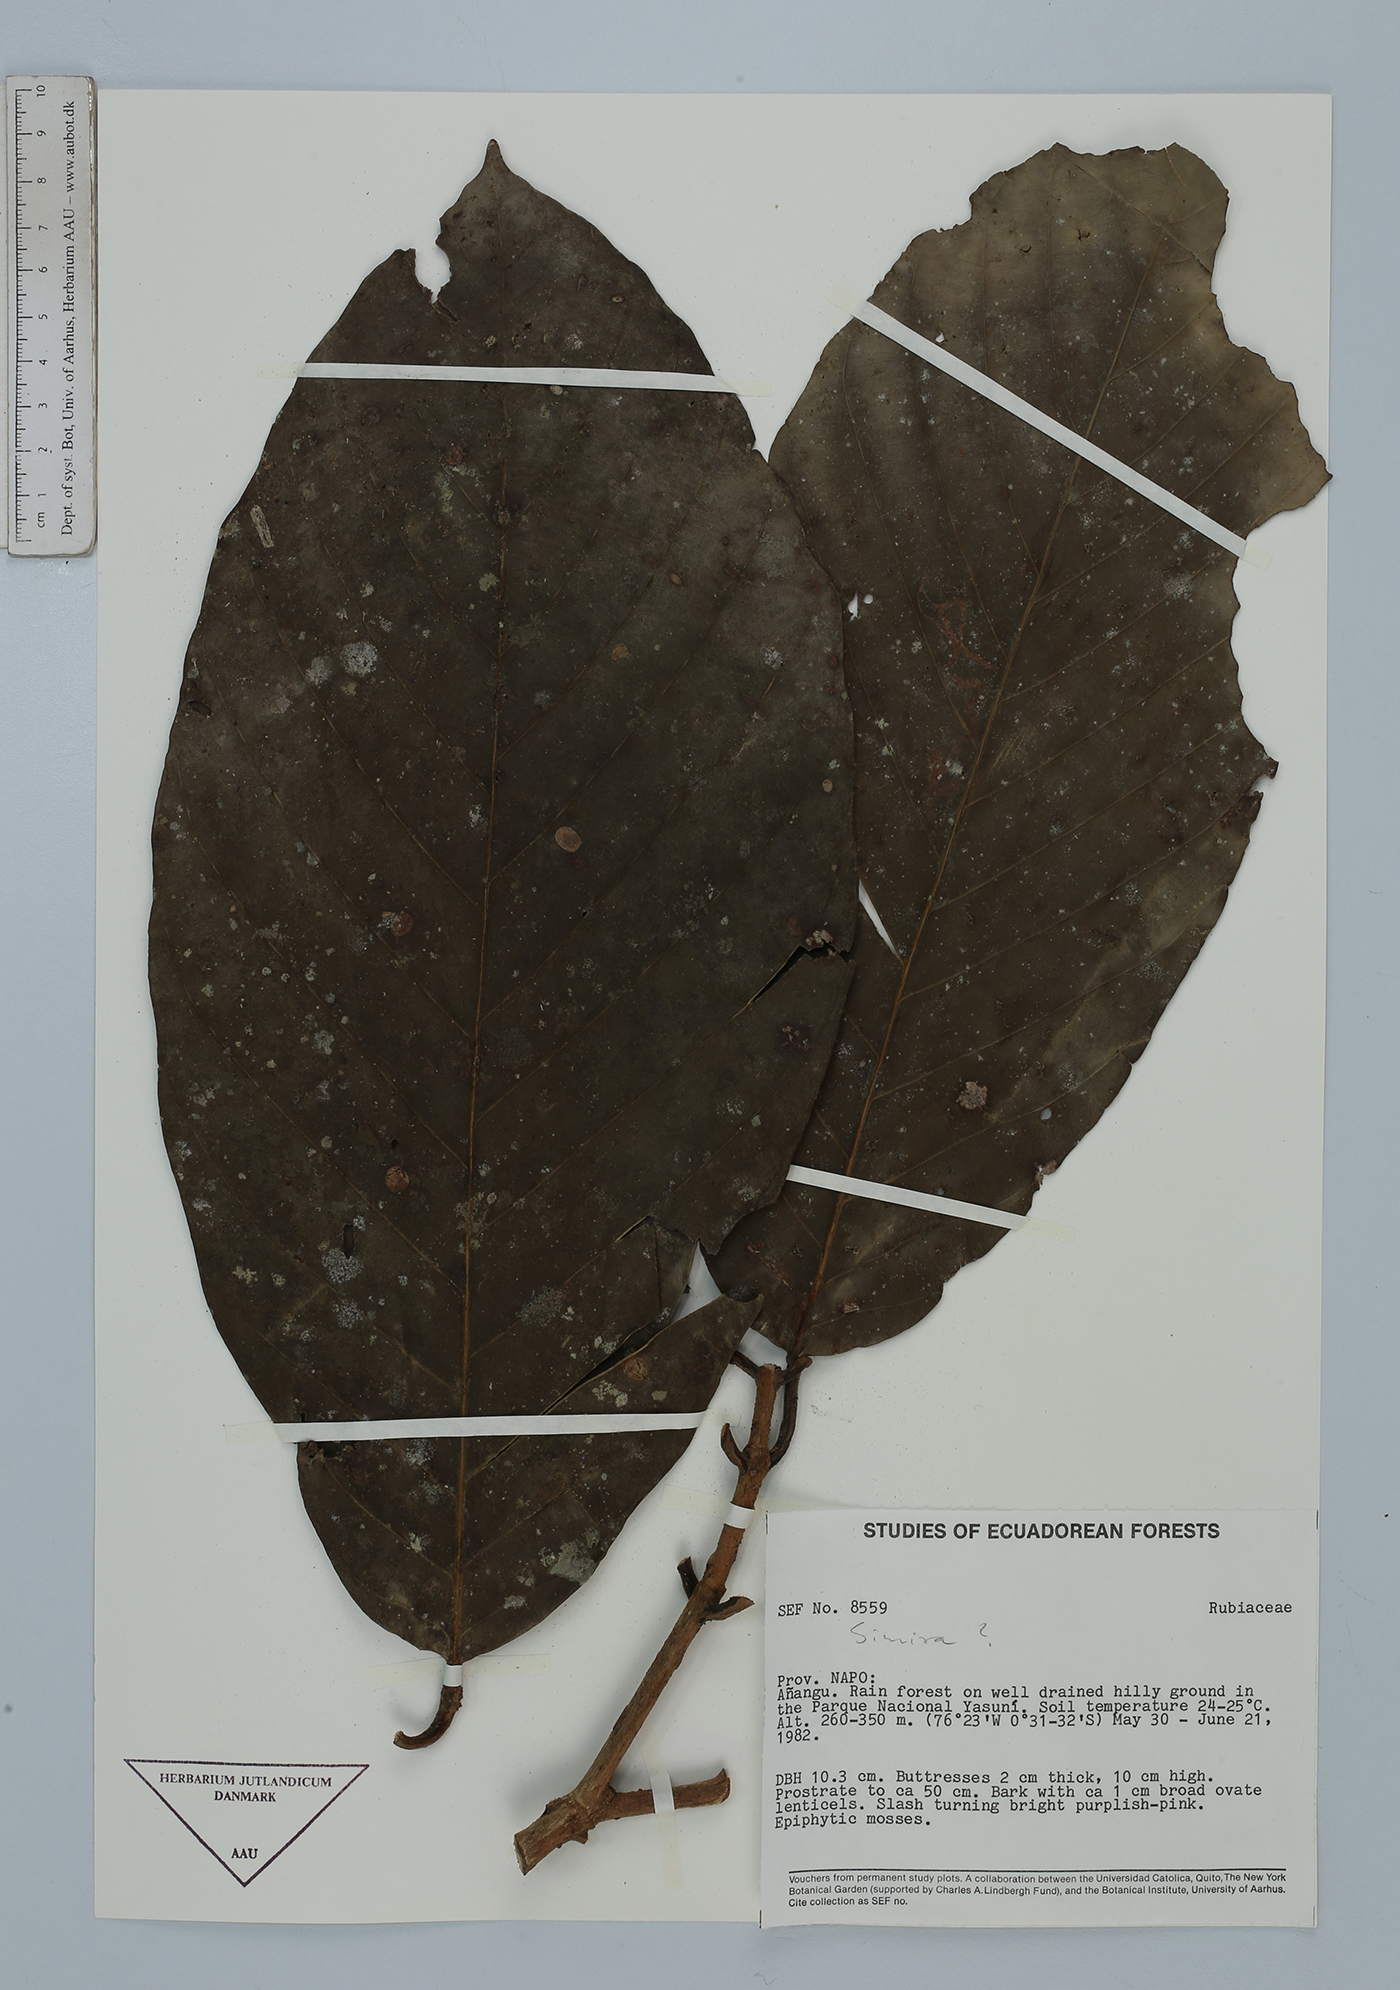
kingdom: Plantae
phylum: Tracheophyta
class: Magnoliopsida
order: Gentianales
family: Rubiaceae
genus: Simira
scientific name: Simira
